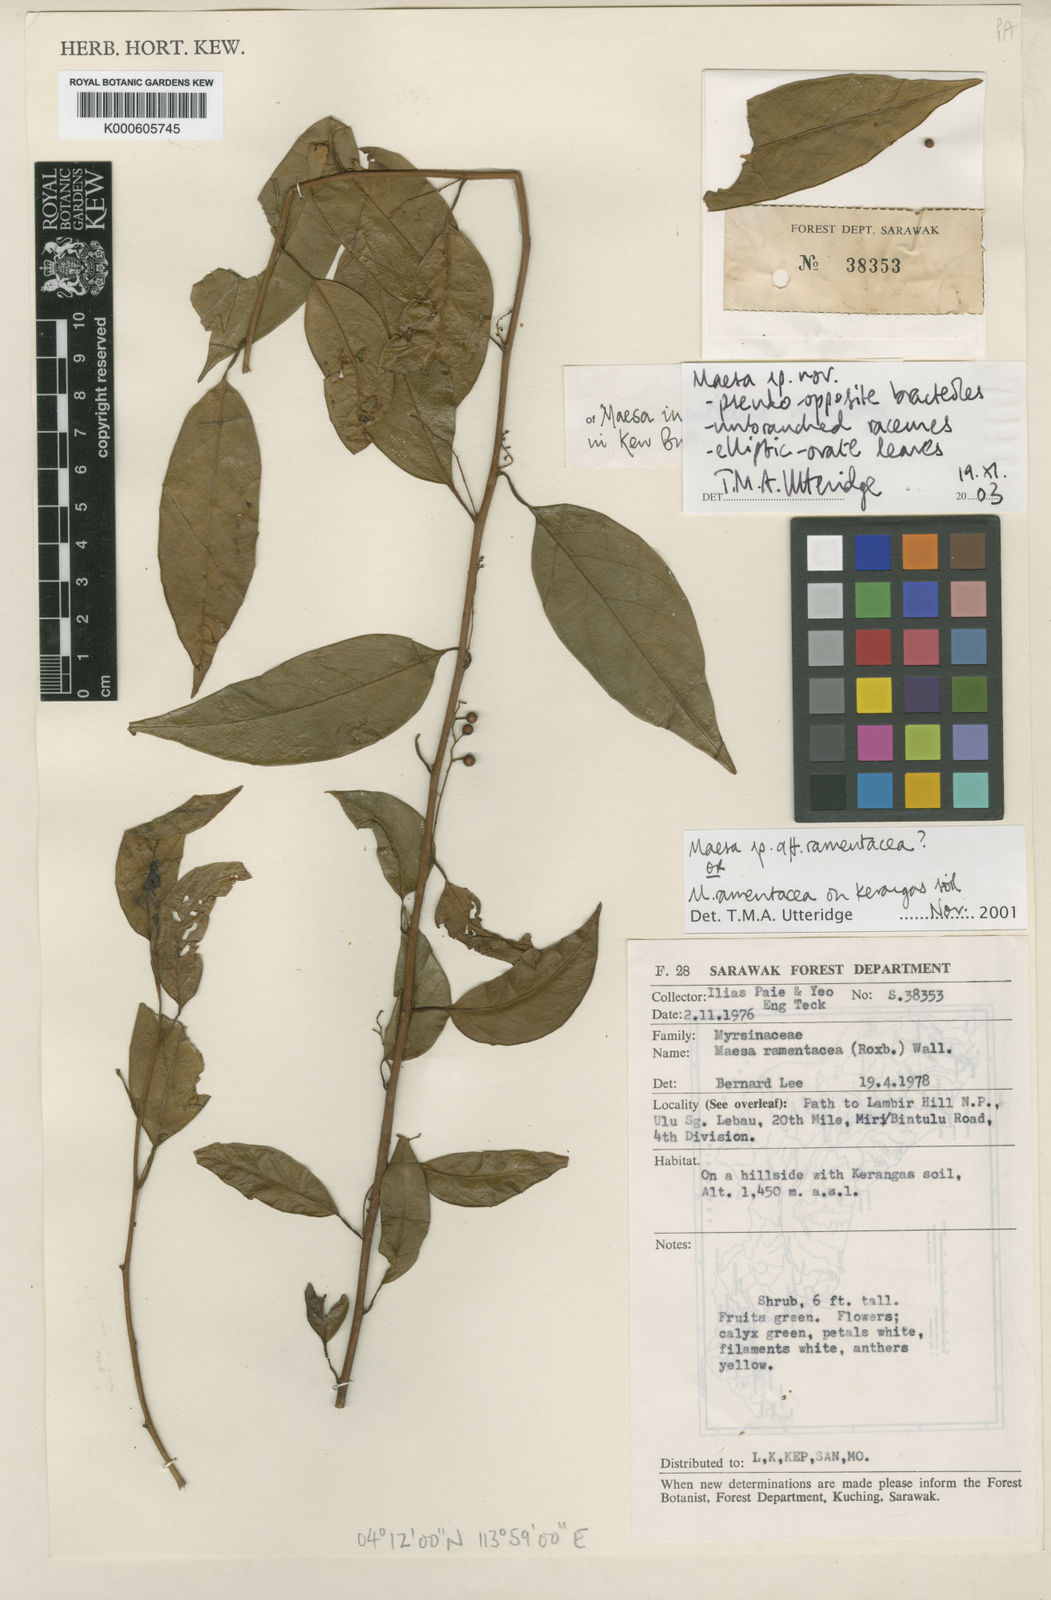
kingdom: Plantae
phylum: Tracheophyta
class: Magnoliopsida
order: Ericales
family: Primulaceae
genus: Maesa
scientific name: Maesa inculticola
